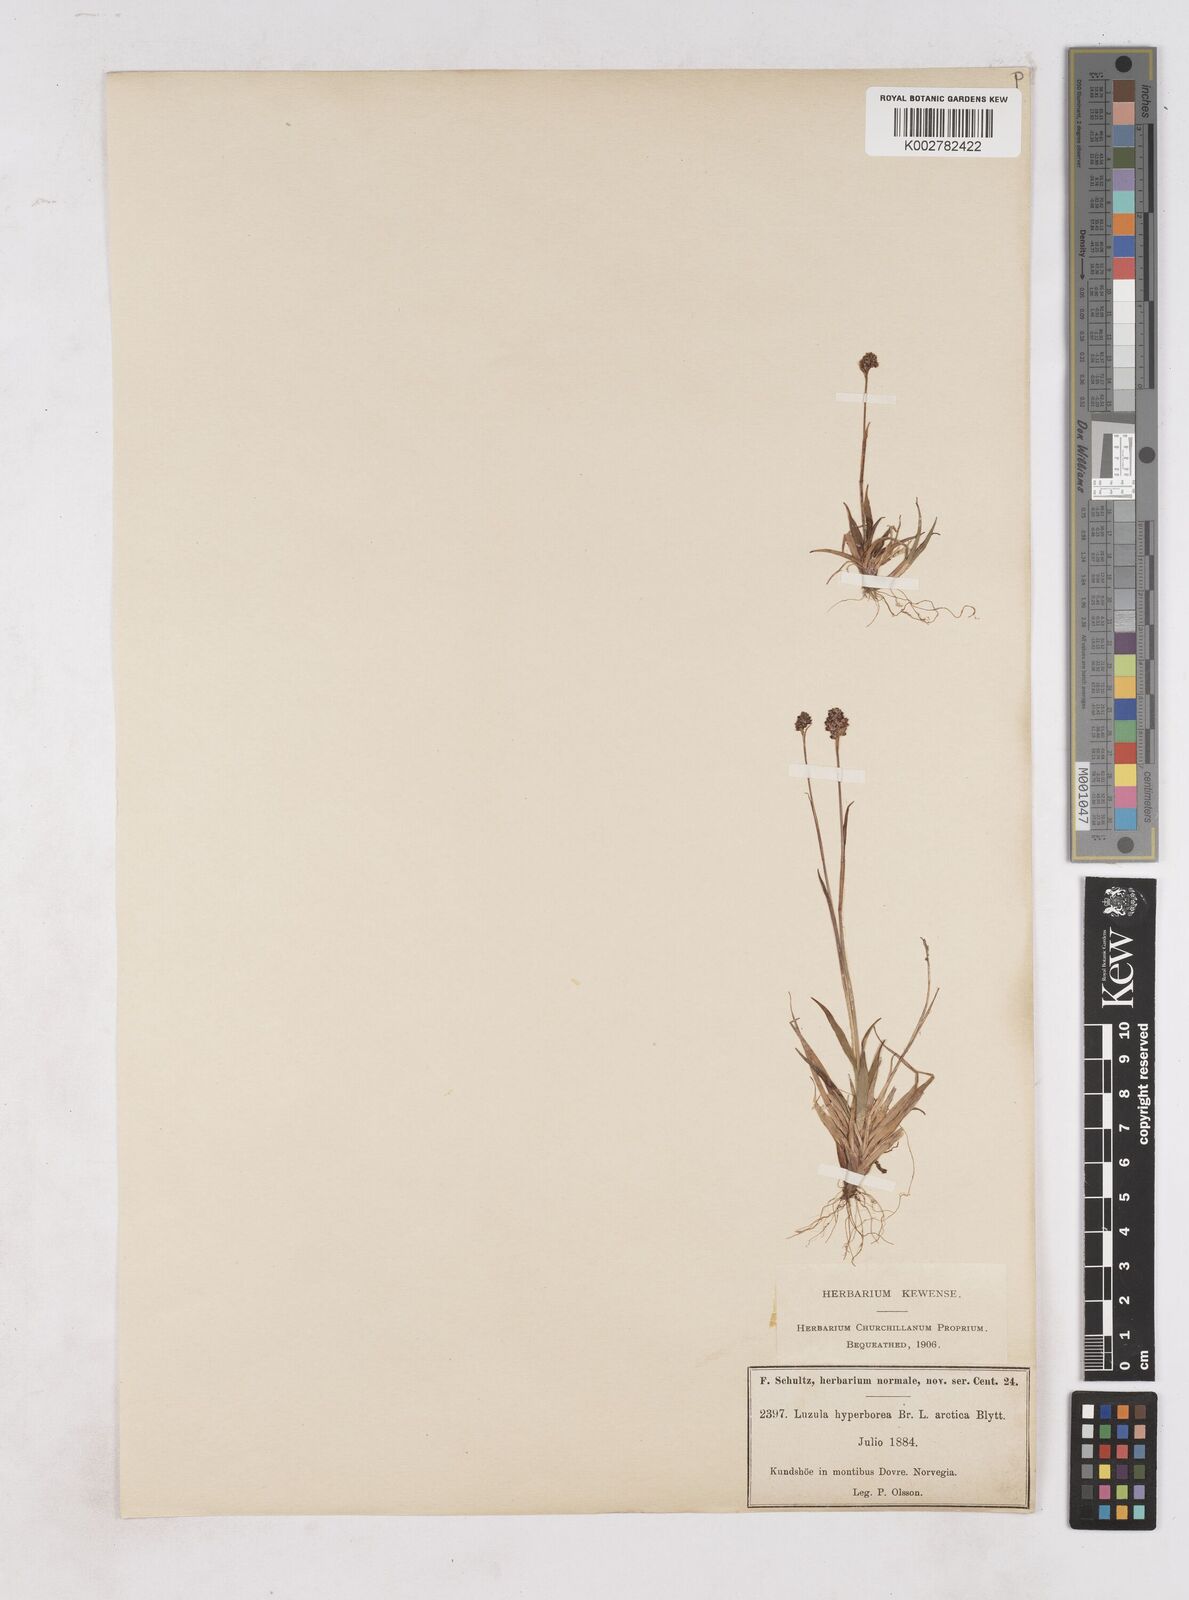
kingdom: Plantae
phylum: Tracheophyta
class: Liliopsida
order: Poales
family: Juncaceae
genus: Luzula
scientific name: Luzula nivalis
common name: Arctic woodrush
